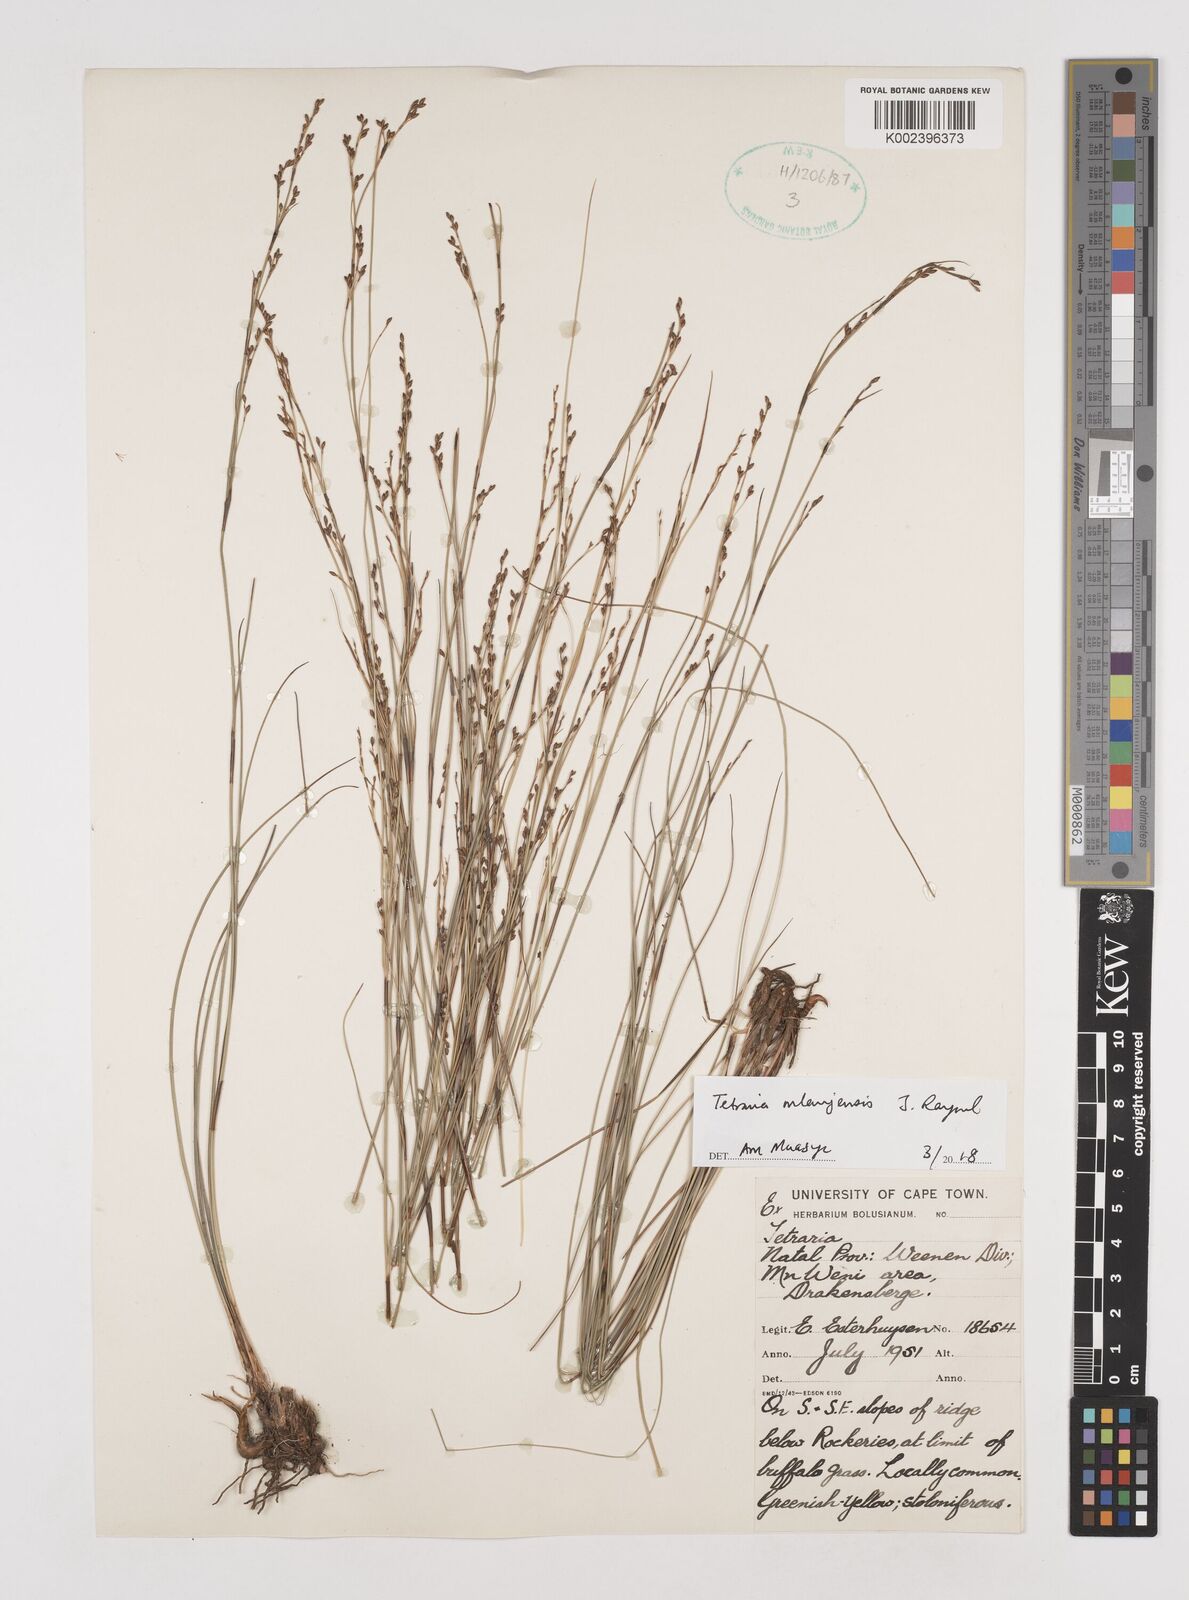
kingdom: Plantae
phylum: Tracheophyta
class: Liliopsida
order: Poales
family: Cyperaceae
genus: Tetraria
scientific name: Tetraria mlanjensis
